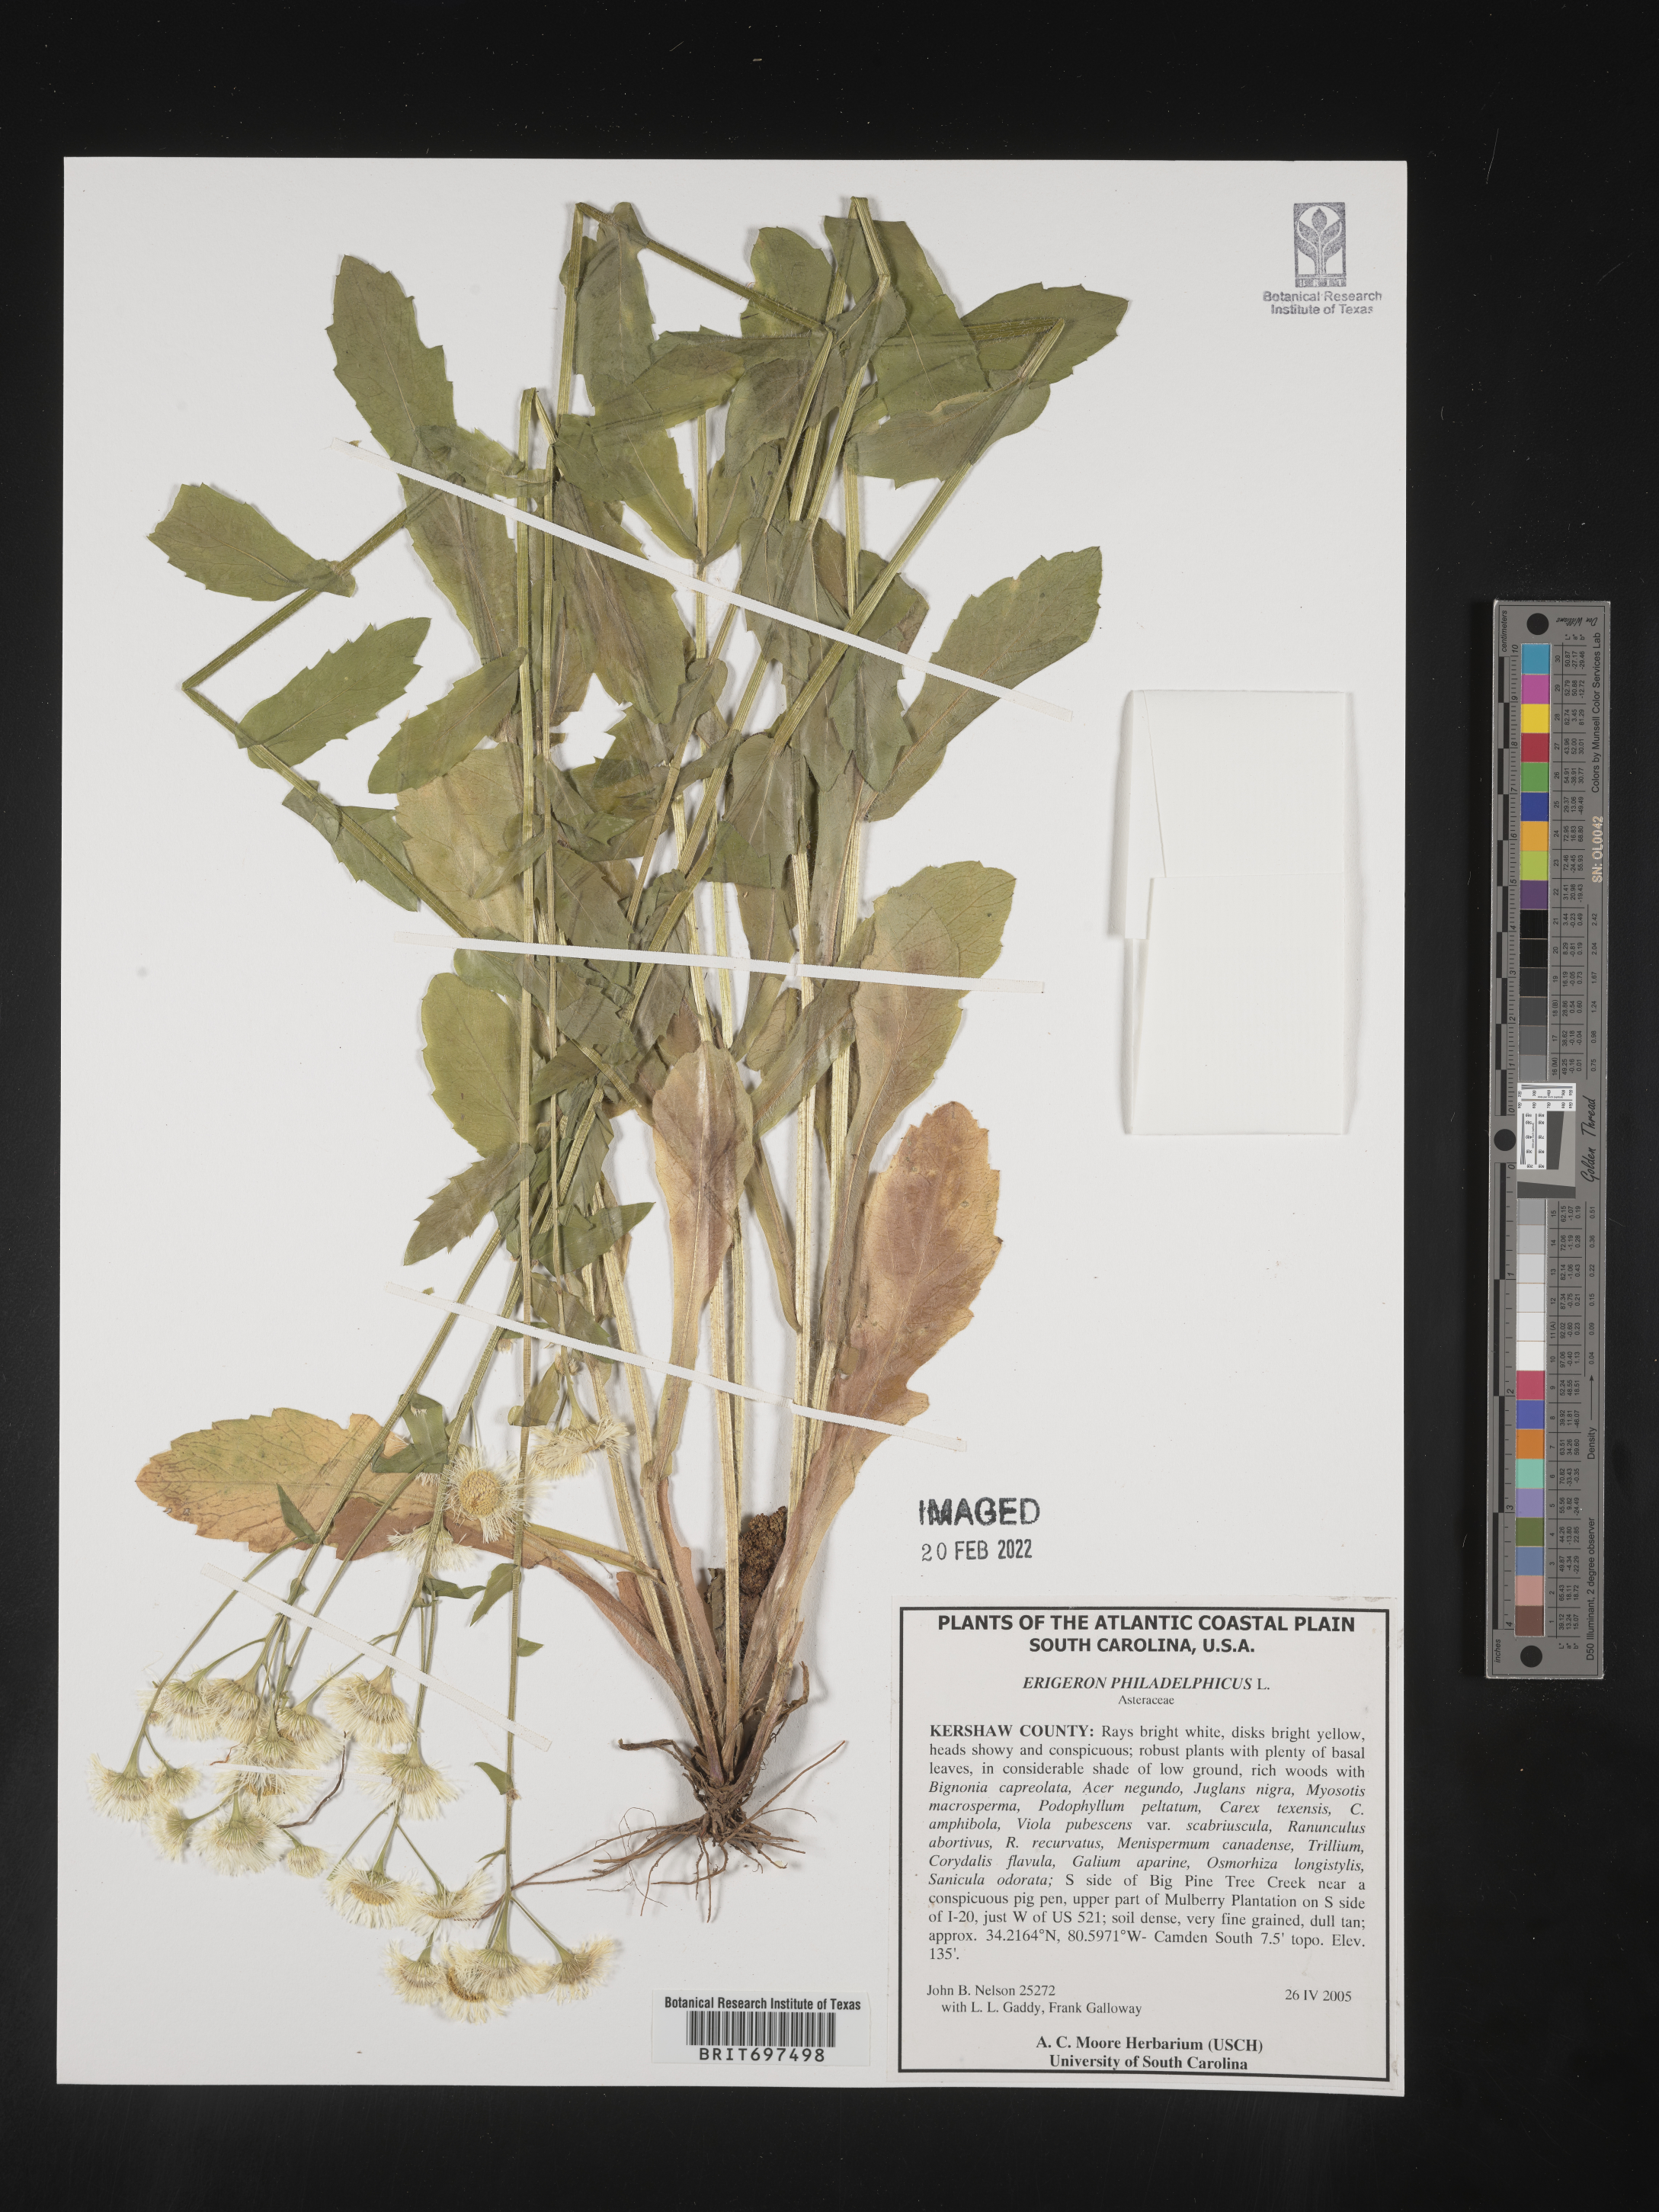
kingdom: Plantae
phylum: Tracheophyta
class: Magnoliopsida
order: Asterales
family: Asteraceae
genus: Erigeron
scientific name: Erigeron philadelphicus
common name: Robin's-plantain
